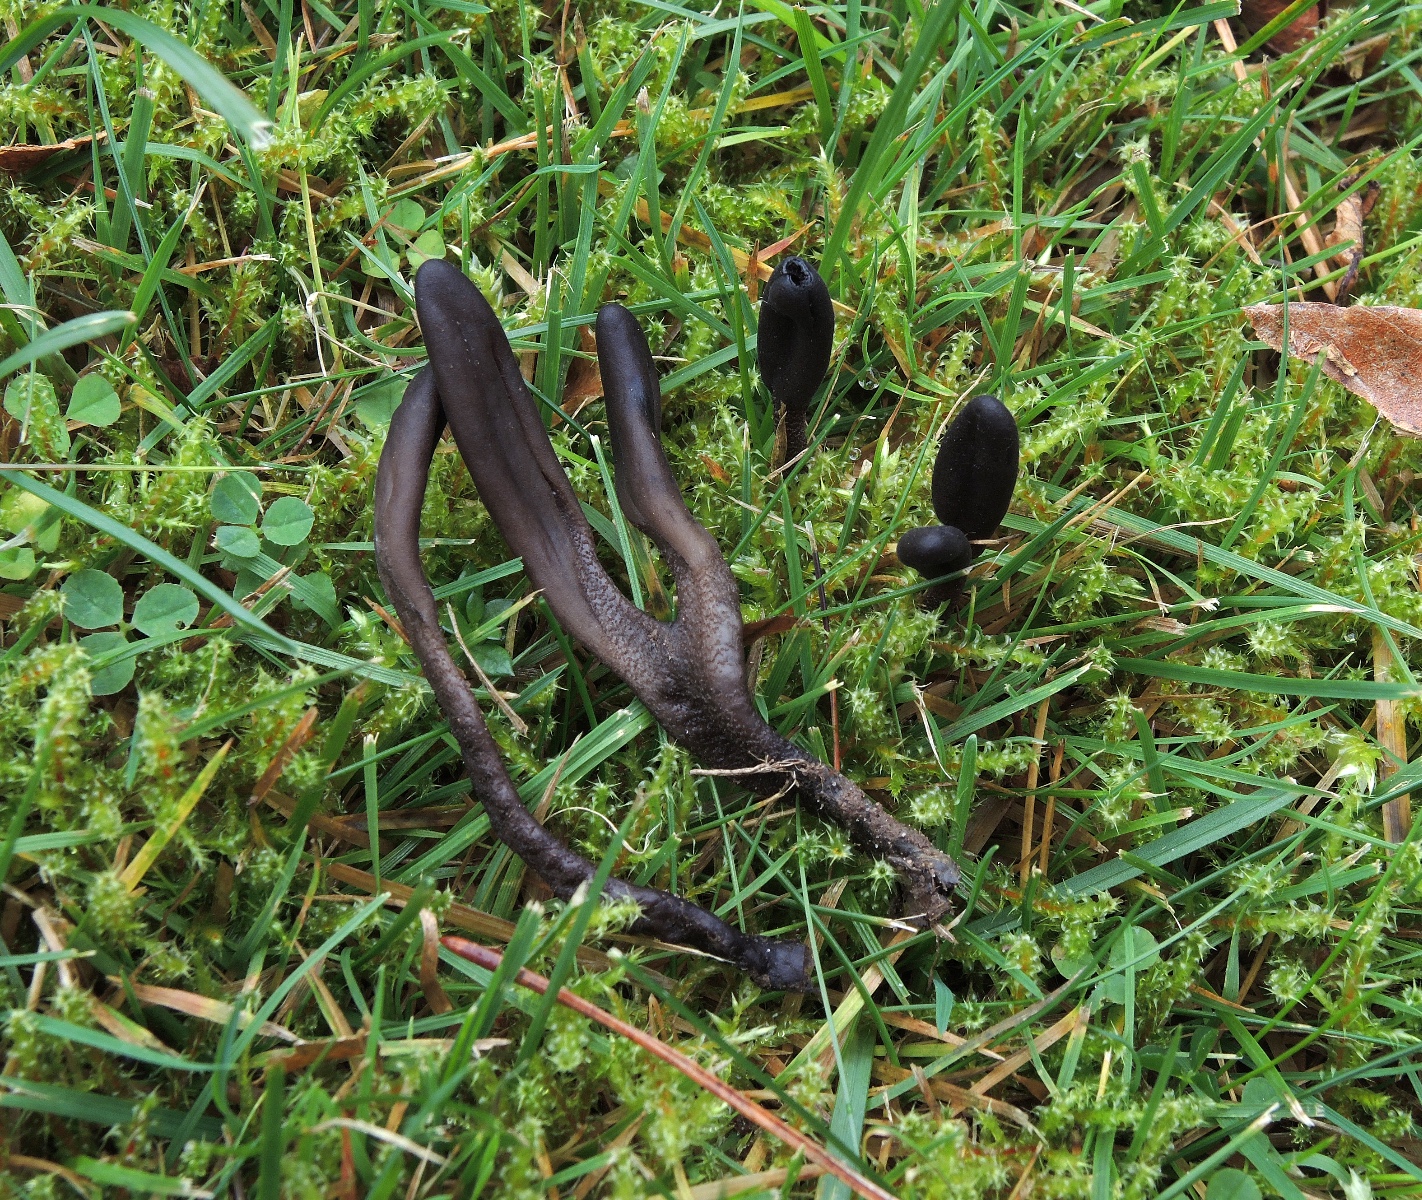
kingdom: Fungi
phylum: Ascomycota
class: Geoglossomycetes
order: Geoglossales
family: Geoglossaceae
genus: Geoglossum
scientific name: Geoglossum fallax
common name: småskællet jordtunge
